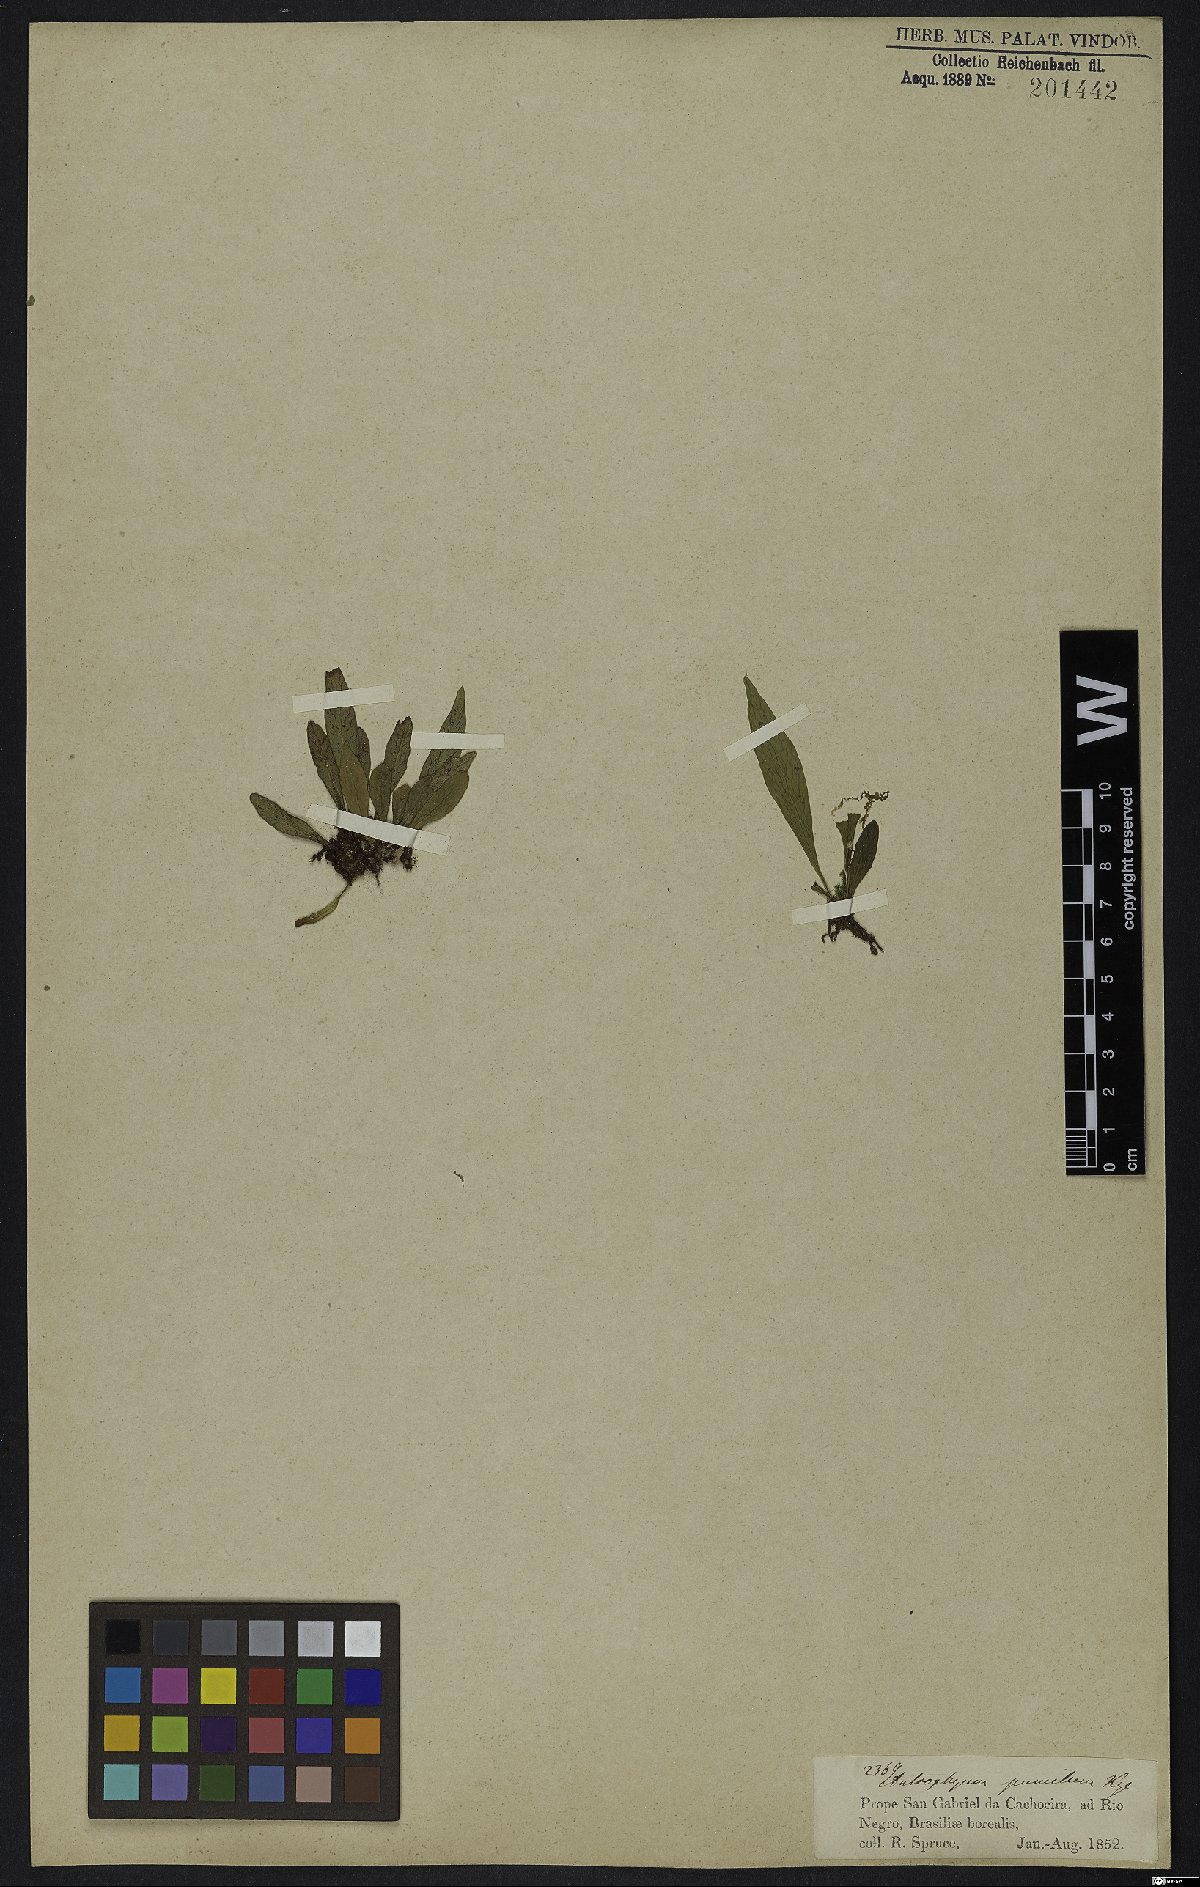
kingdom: Plantae
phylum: Tracheophyta
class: Polypodiopsida
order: Polypodiales
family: Pteridaceae
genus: Antrophyum
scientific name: Antrophyum parvulum
